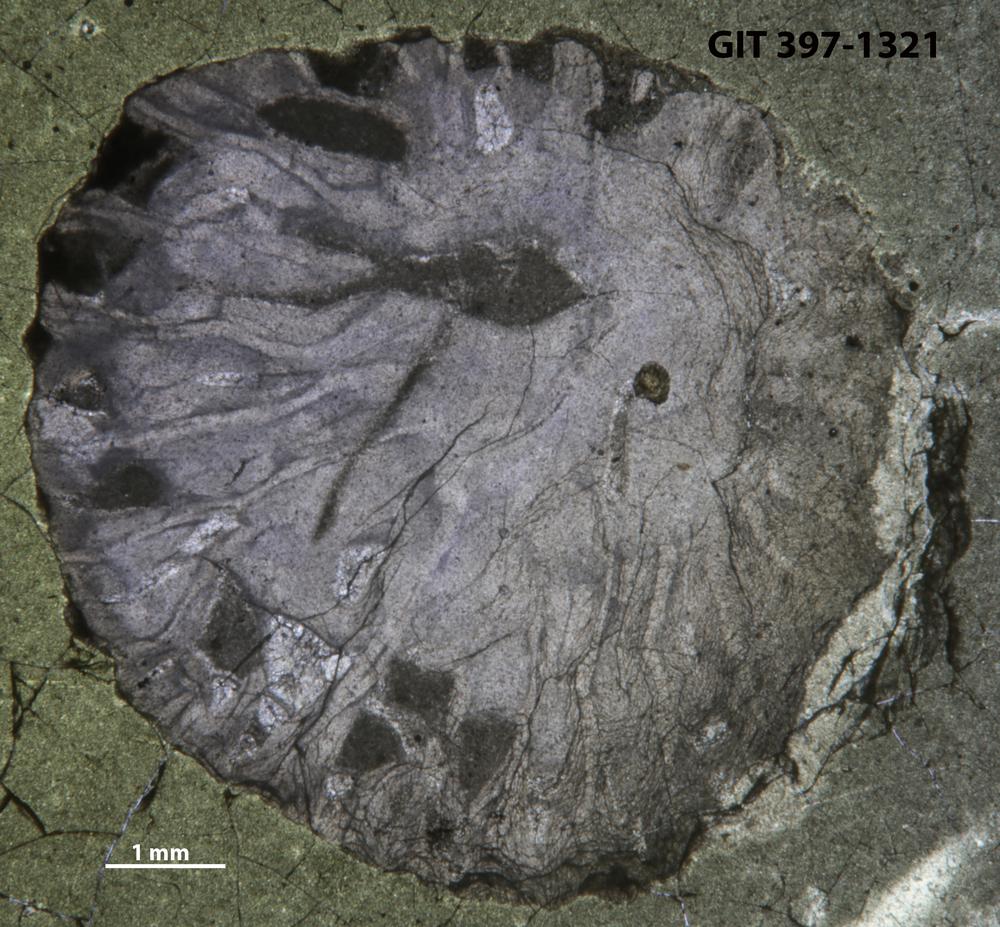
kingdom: Animalia
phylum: Cnidaria
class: Anthozoa
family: Lykophyllidae
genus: Pycnactis
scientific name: Pycnactis
